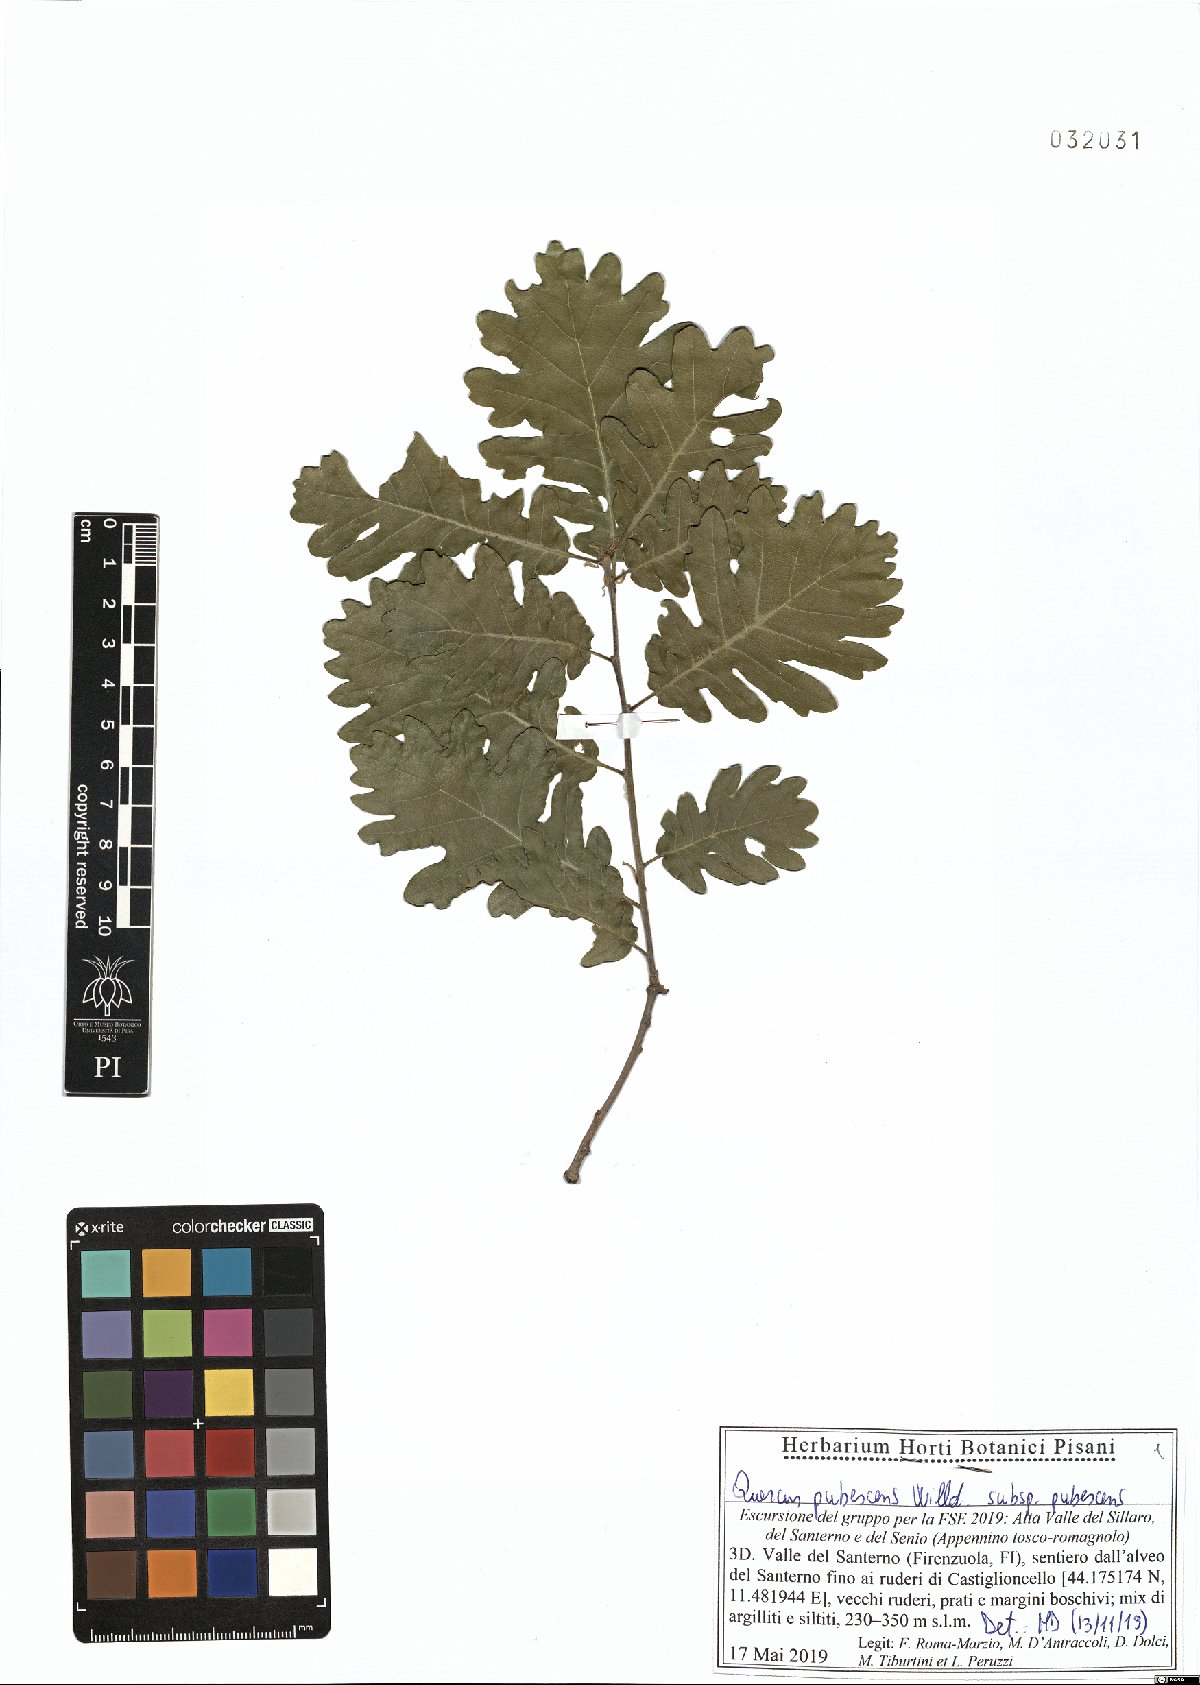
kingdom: Plantae
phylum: Tracheophyta
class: Magnoliopsida
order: Fagales
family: Fagaceae
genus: Quercus
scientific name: Quercus pubescens
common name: Downy oak
